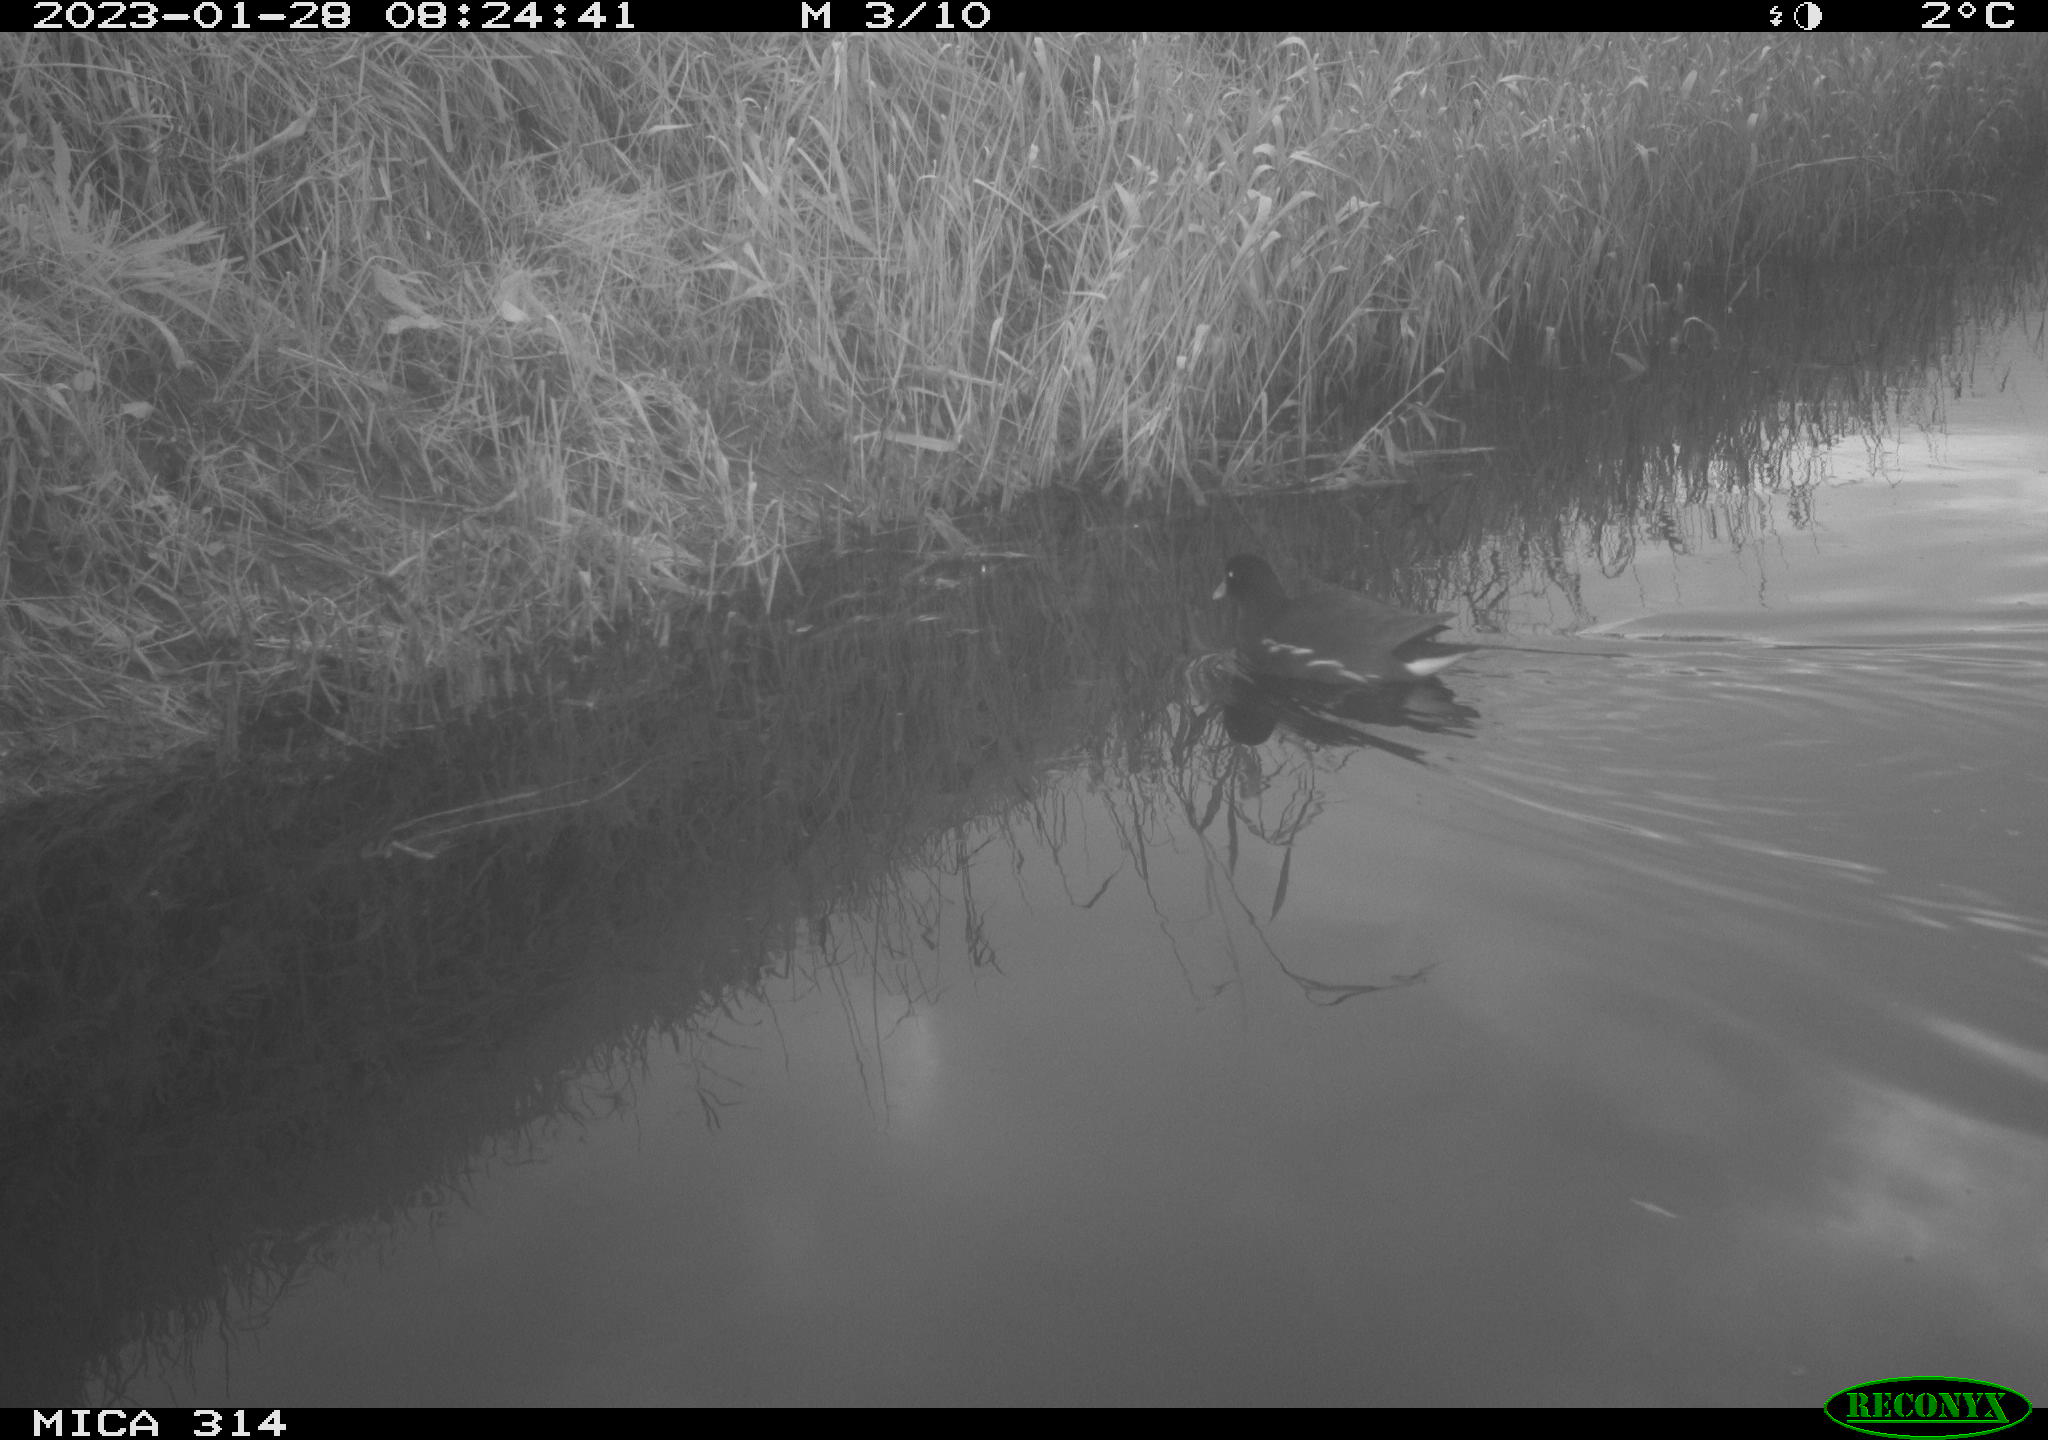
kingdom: Animalia
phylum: Chordata
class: Aves
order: Gruiformes
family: Rallidae
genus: Gallinula
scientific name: Gallinula chloropus
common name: Common moorhen
